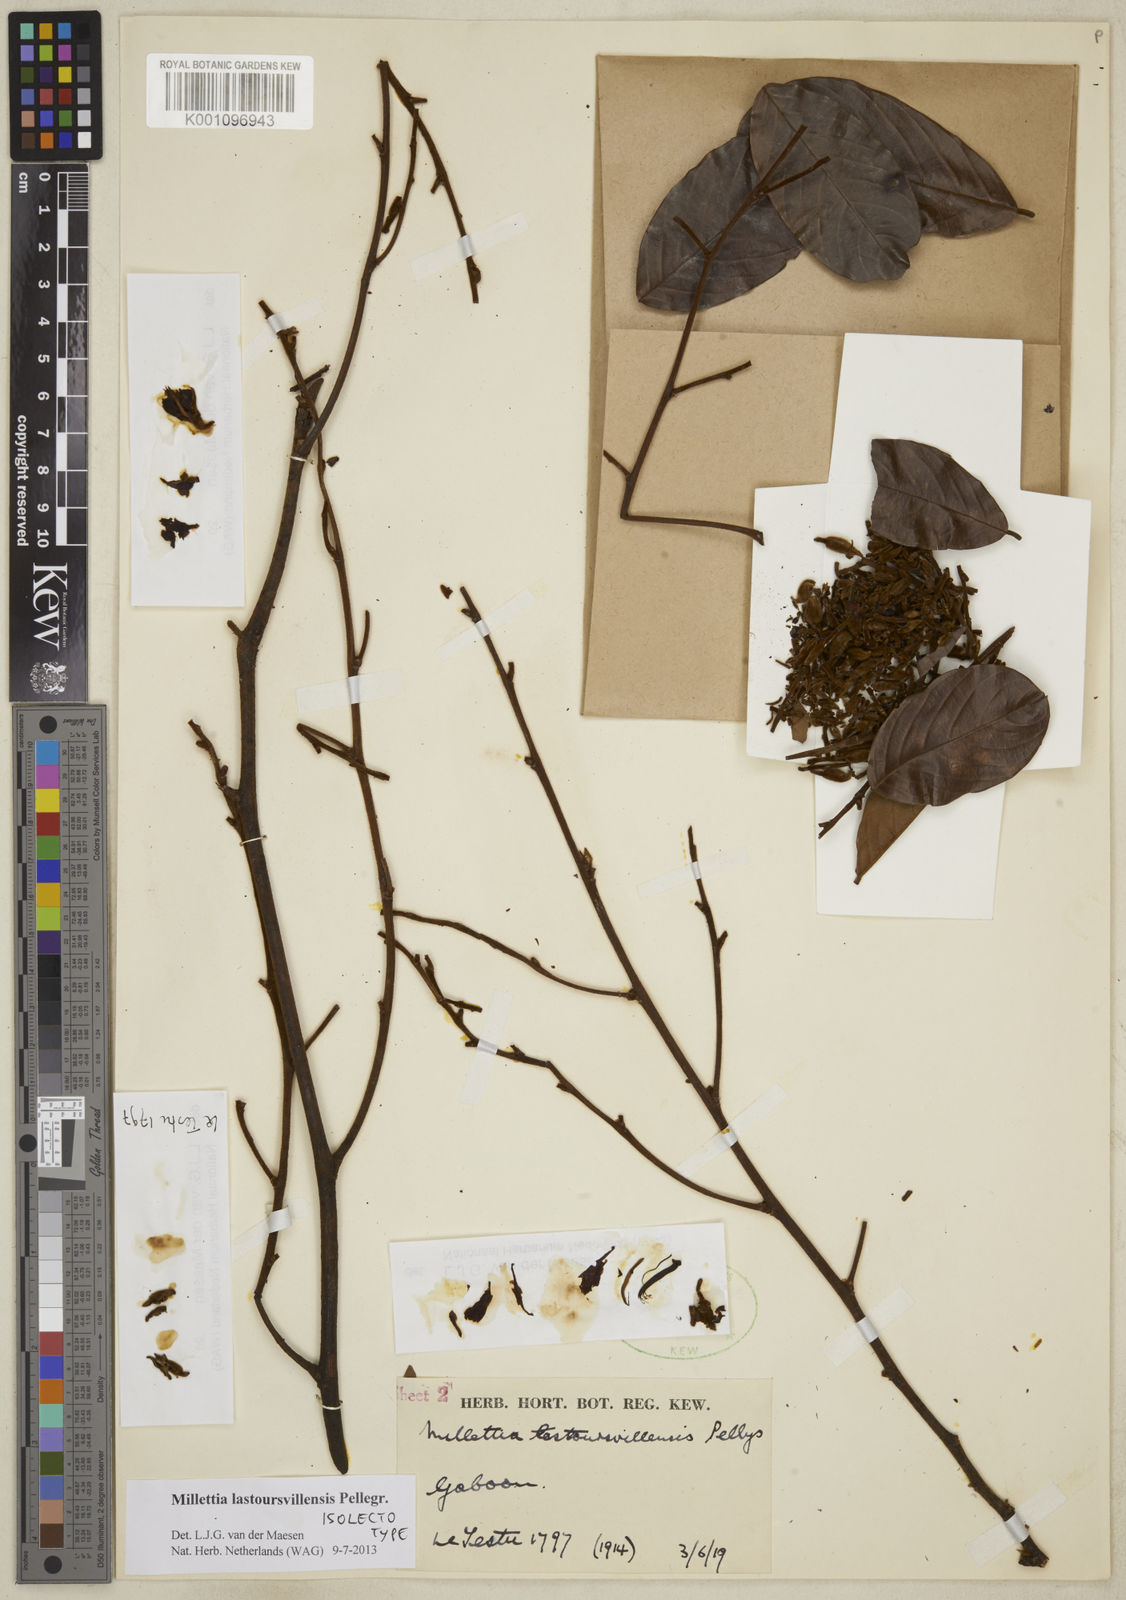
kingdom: Plantae
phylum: Tracheophyta
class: Magnoliopsida
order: Fabales
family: Fabaceae
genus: Millettia
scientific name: Millettia lastoursvillensis
